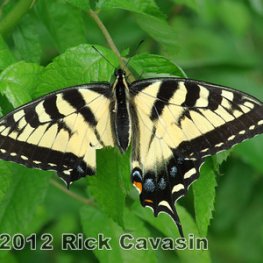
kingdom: Animalia
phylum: Arthropoda
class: Insecta
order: Lepidoptera
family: Papilionidae
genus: Pterourus
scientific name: Pterourus glaucus
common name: Eastern Tiger Swallowtail
